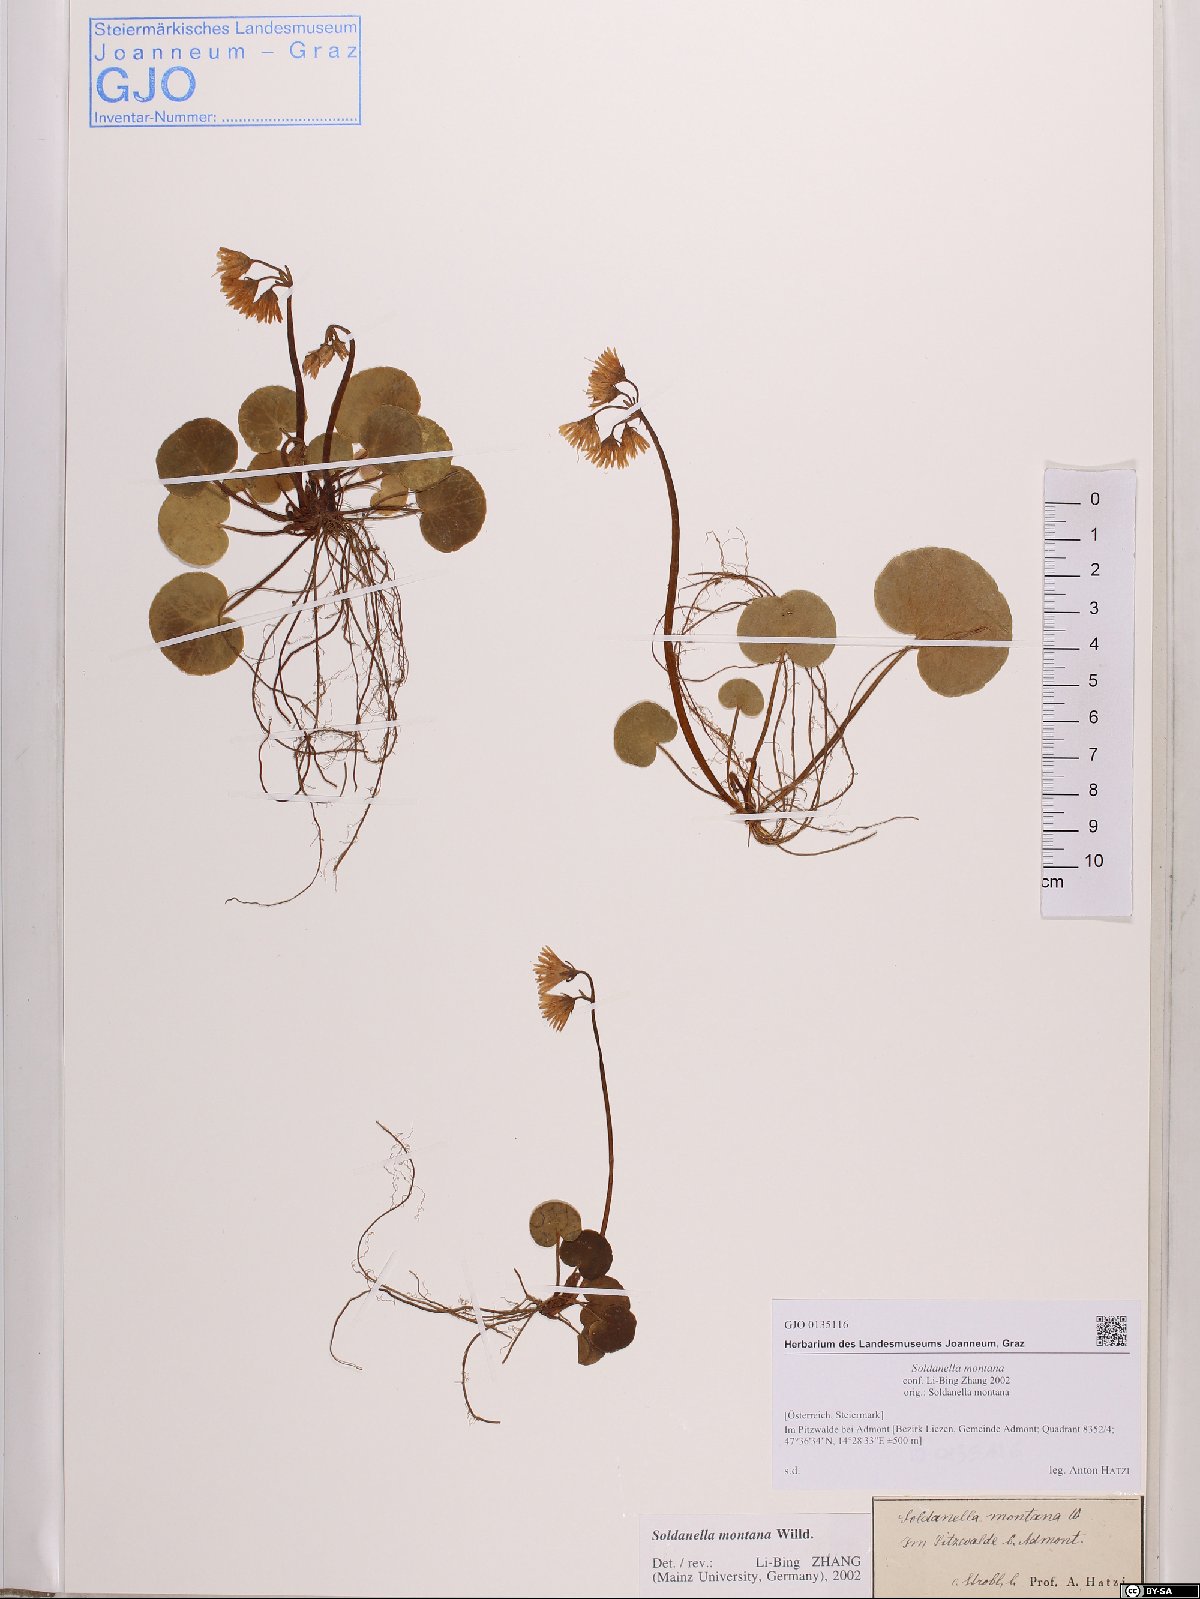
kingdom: Plantae
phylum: Tracheophyta
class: Magnoliopsida
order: Ericales
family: Primulaceae
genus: Soldanella
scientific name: Soldanella montana
